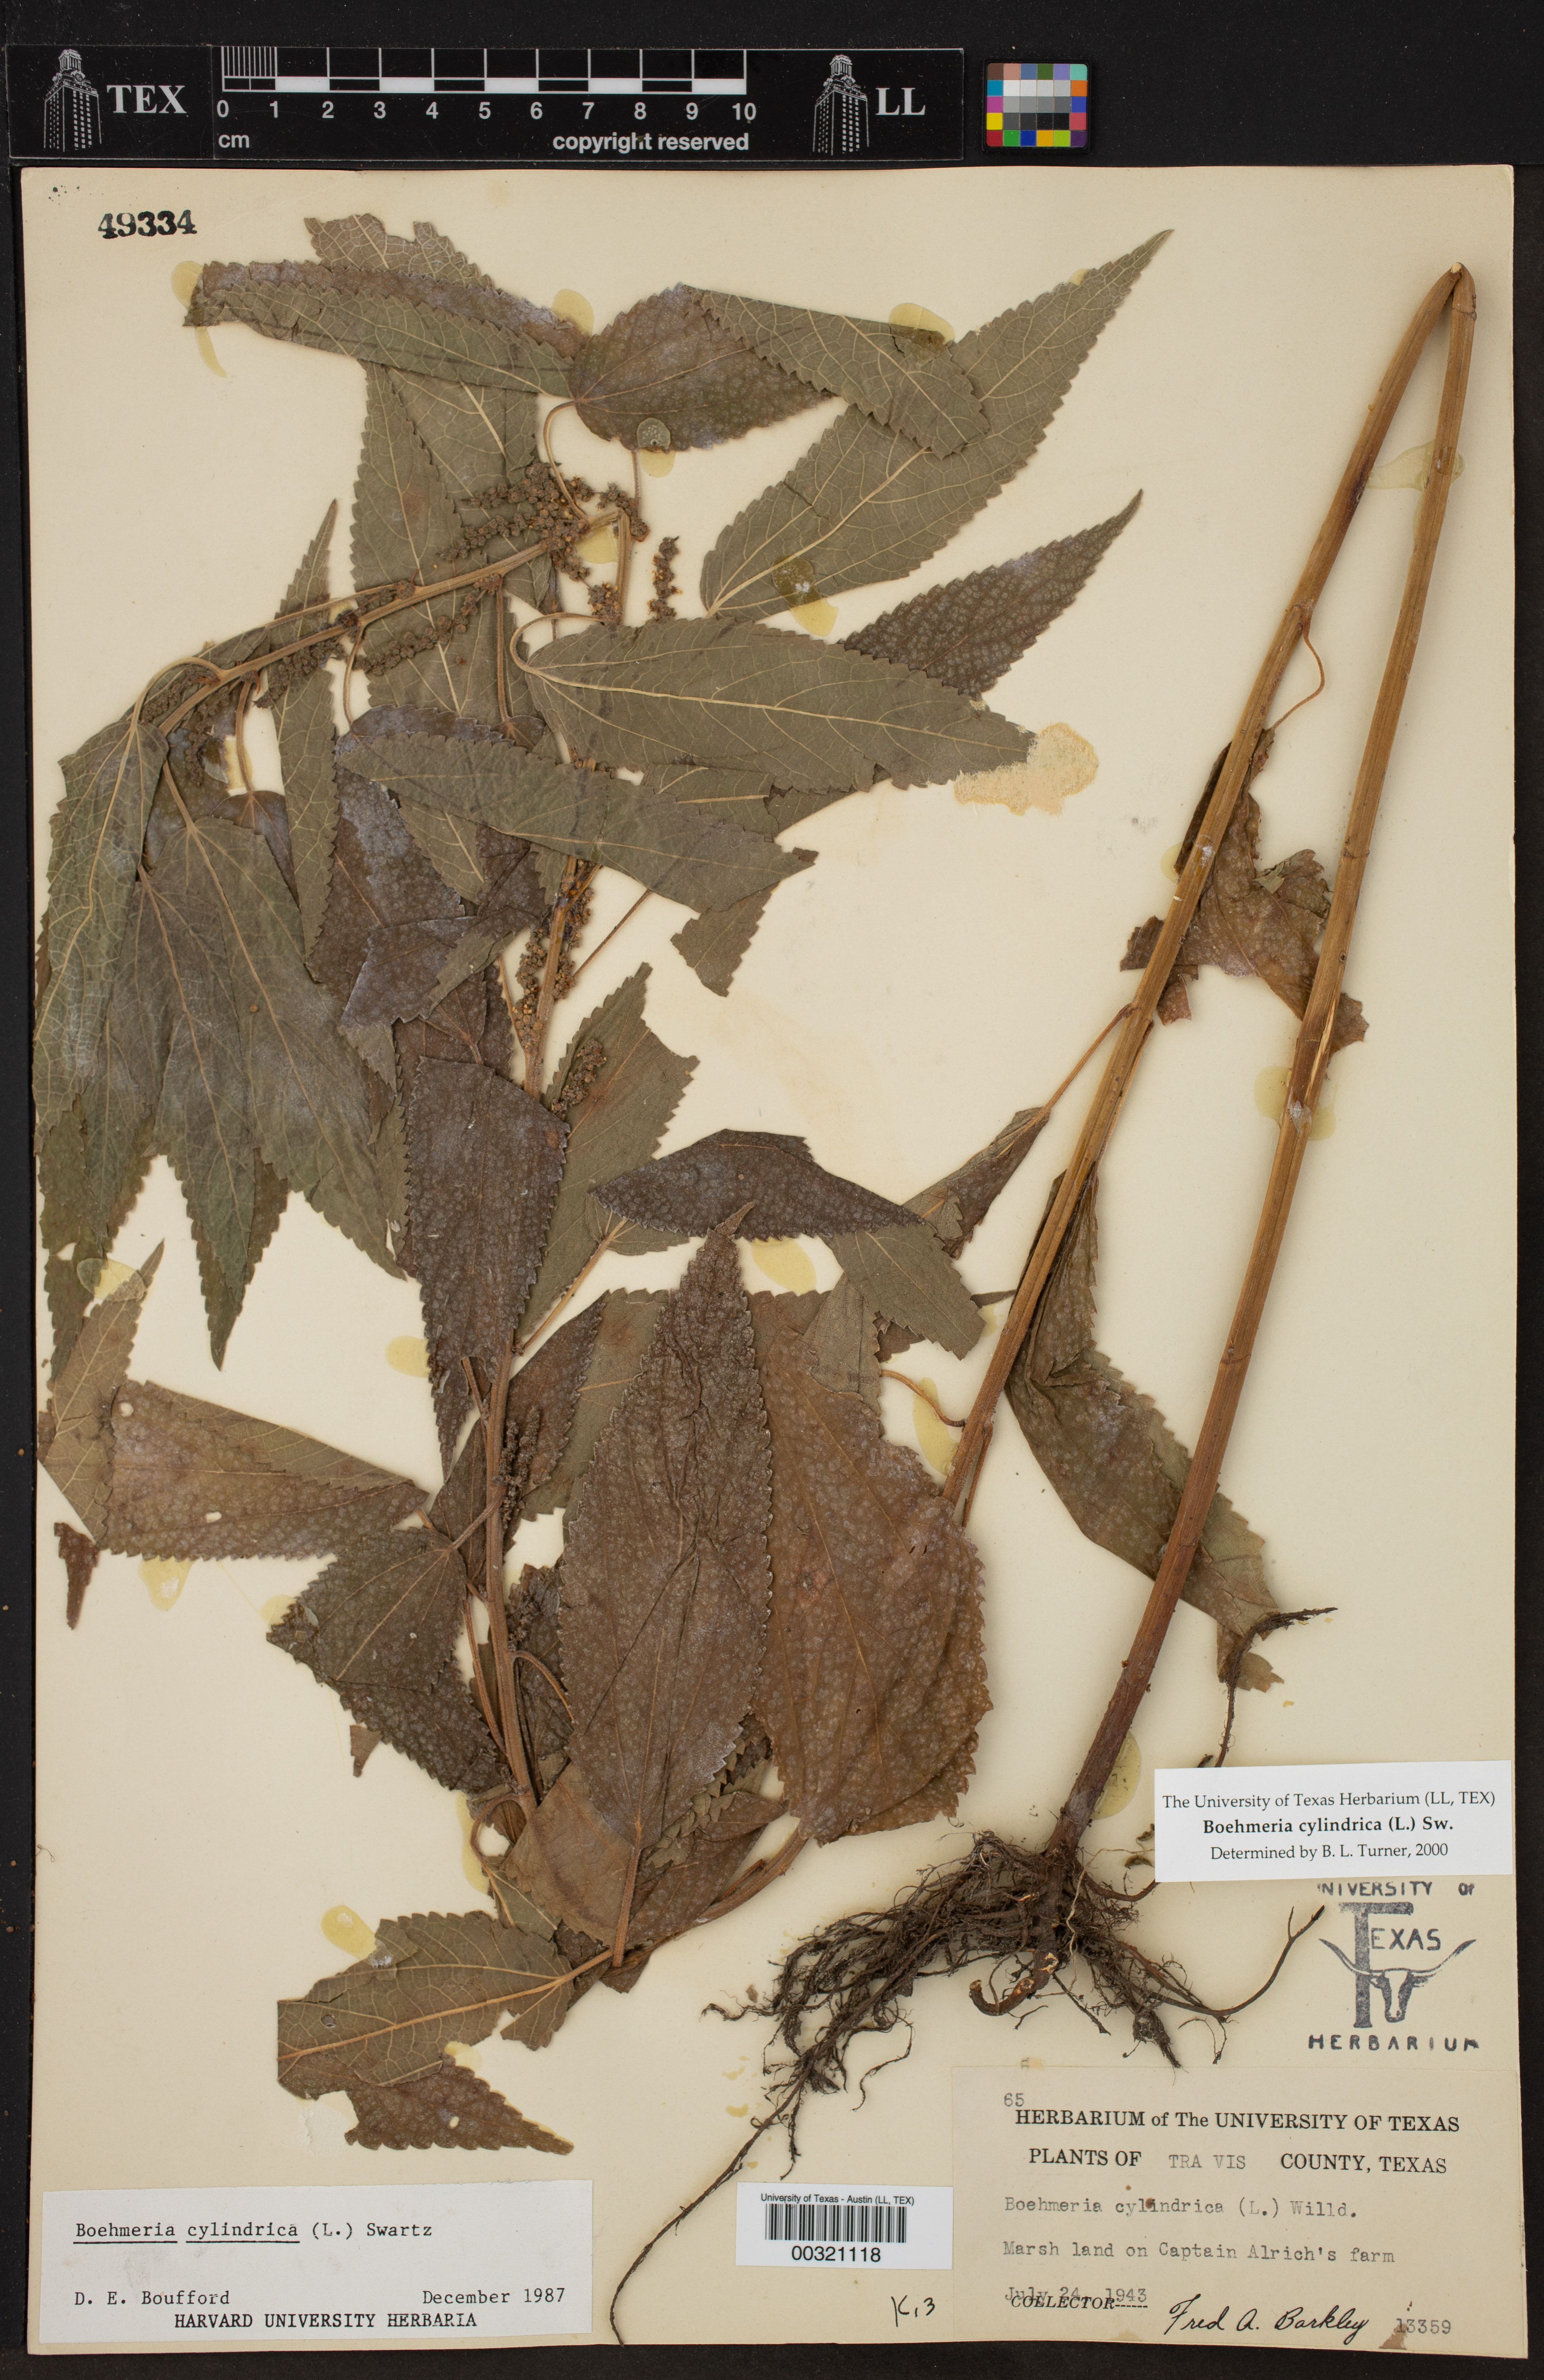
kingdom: Plantae
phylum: Tracheophyta
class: Magnoliopsida
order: Rosales
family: Urticaceae
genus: Boehmeria
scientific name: Boehmeria cylindrica
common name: Bog-hemp
